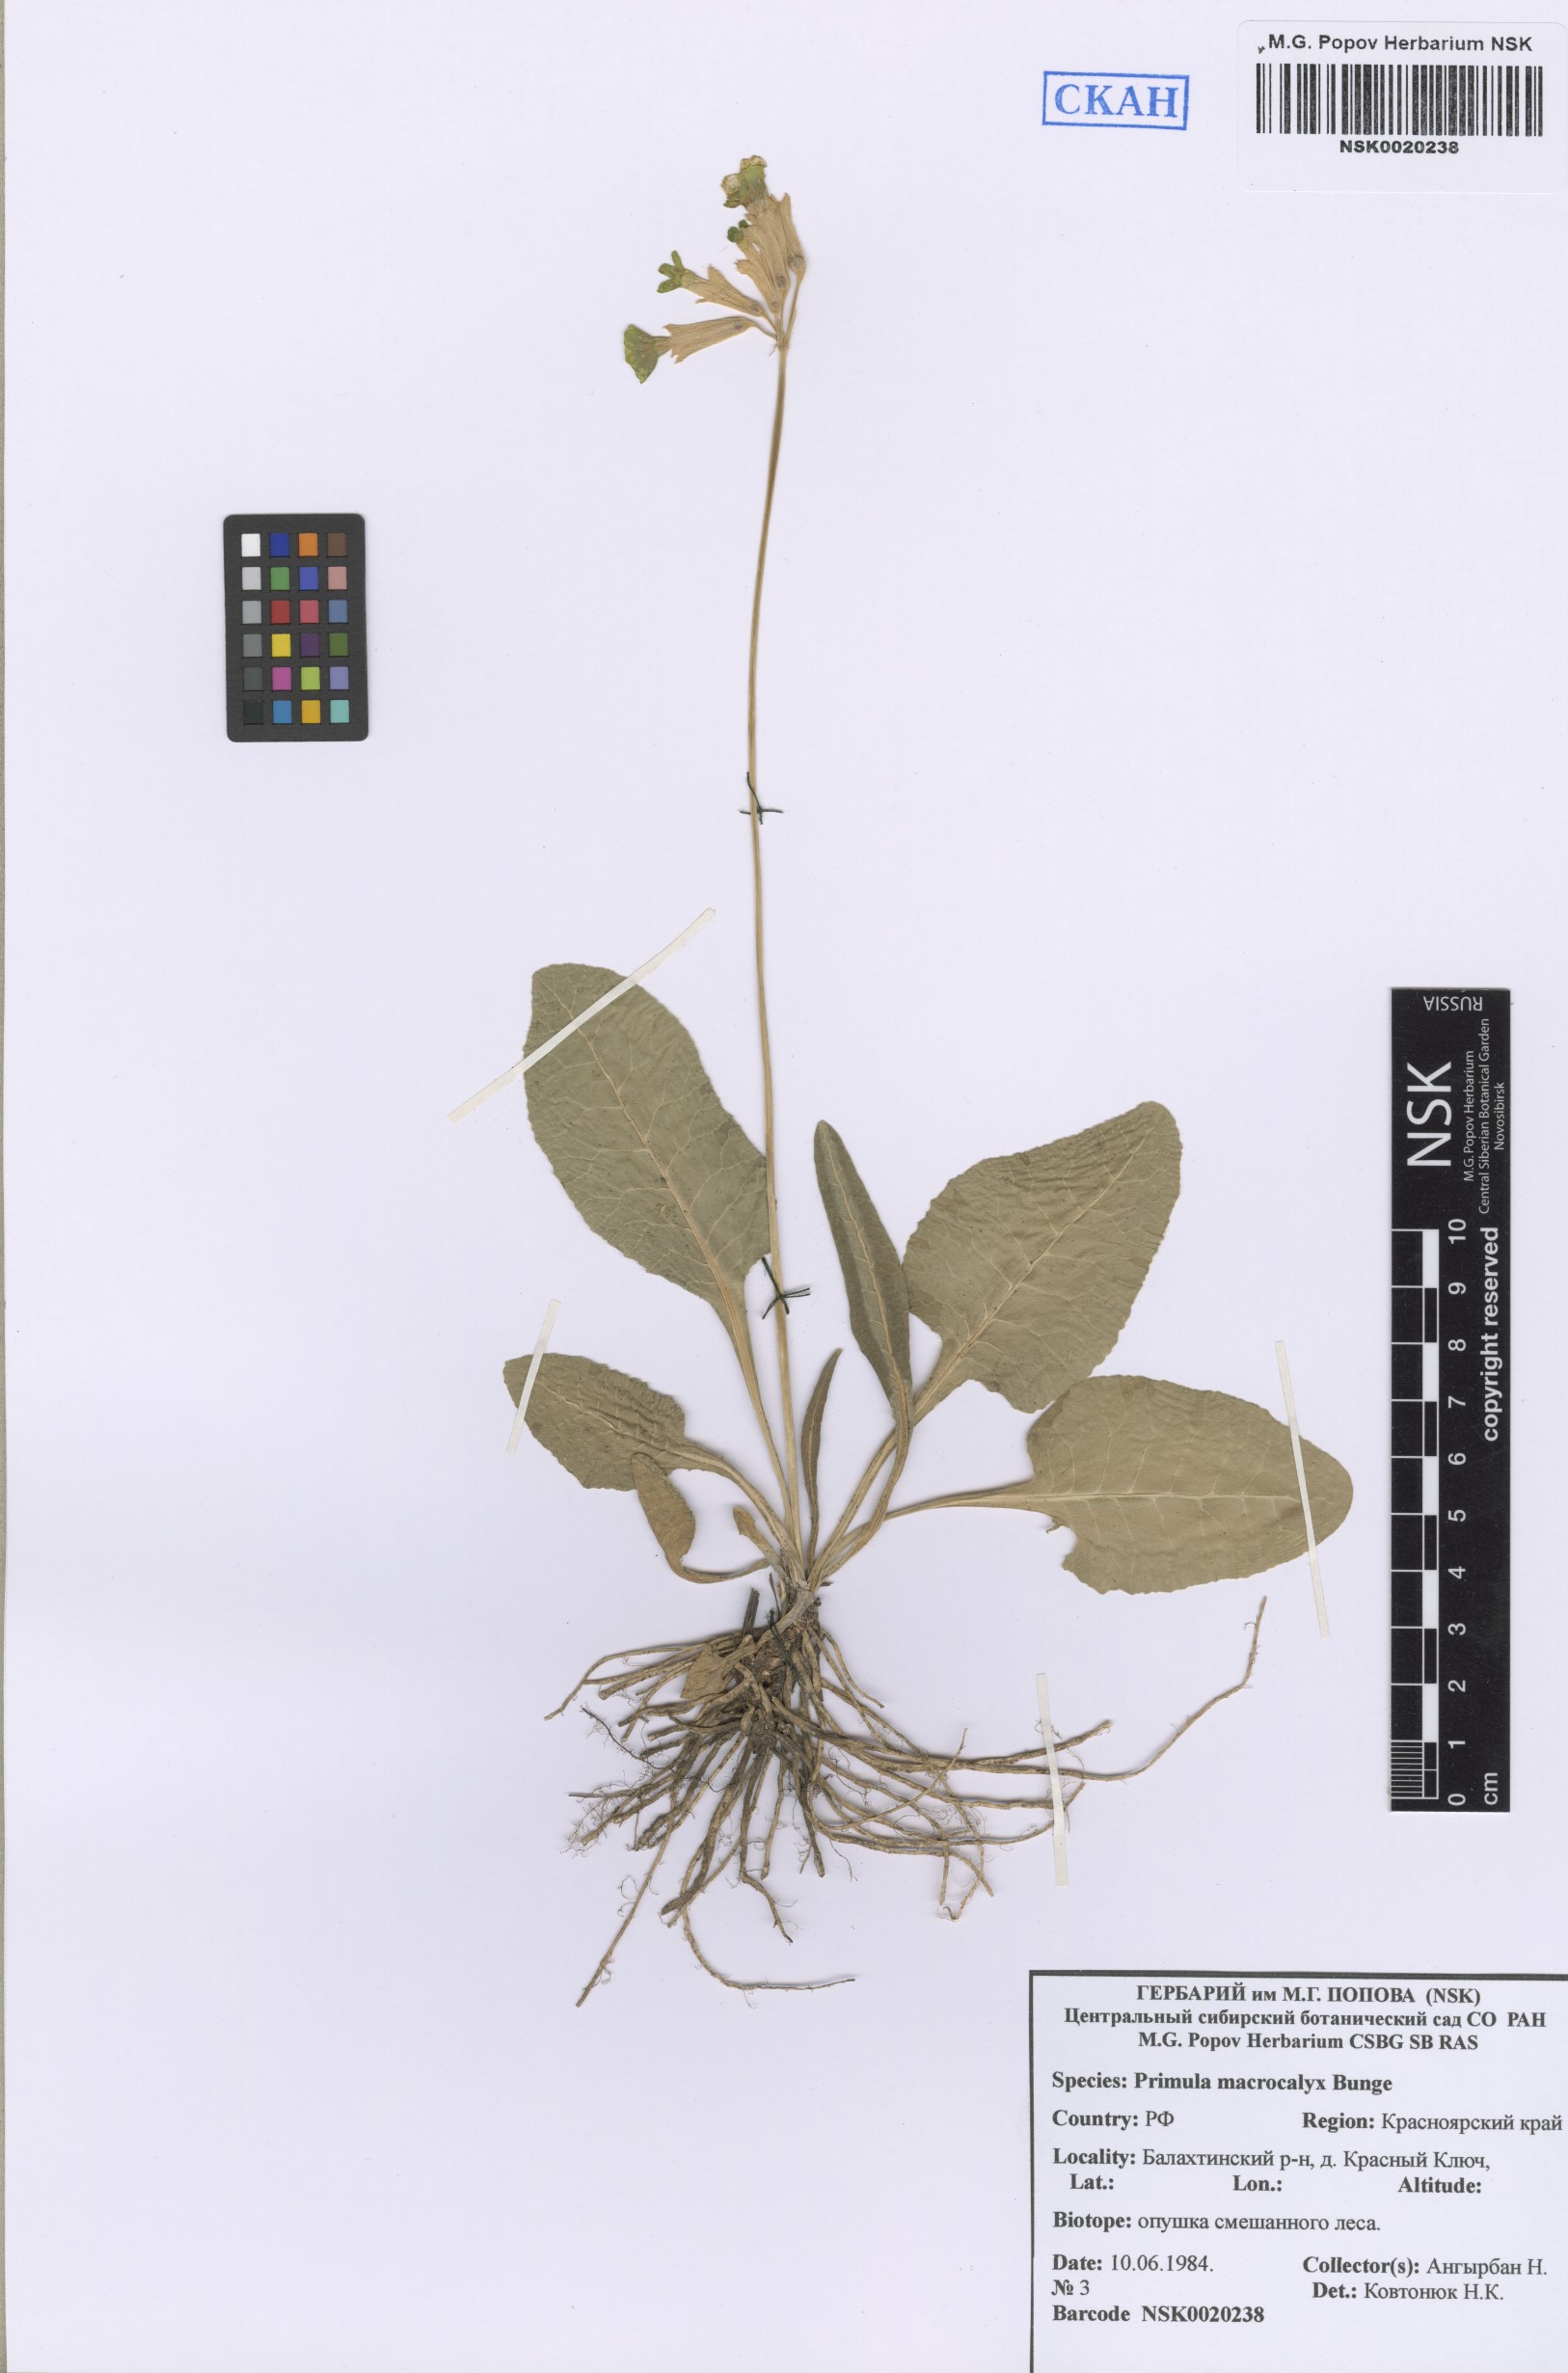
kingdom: Plantae
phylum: Tracheophyta
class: Magnoliopsida
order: Ericales
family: Primulaceae
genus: Primula
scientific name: Primula veris
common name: Cowslip
